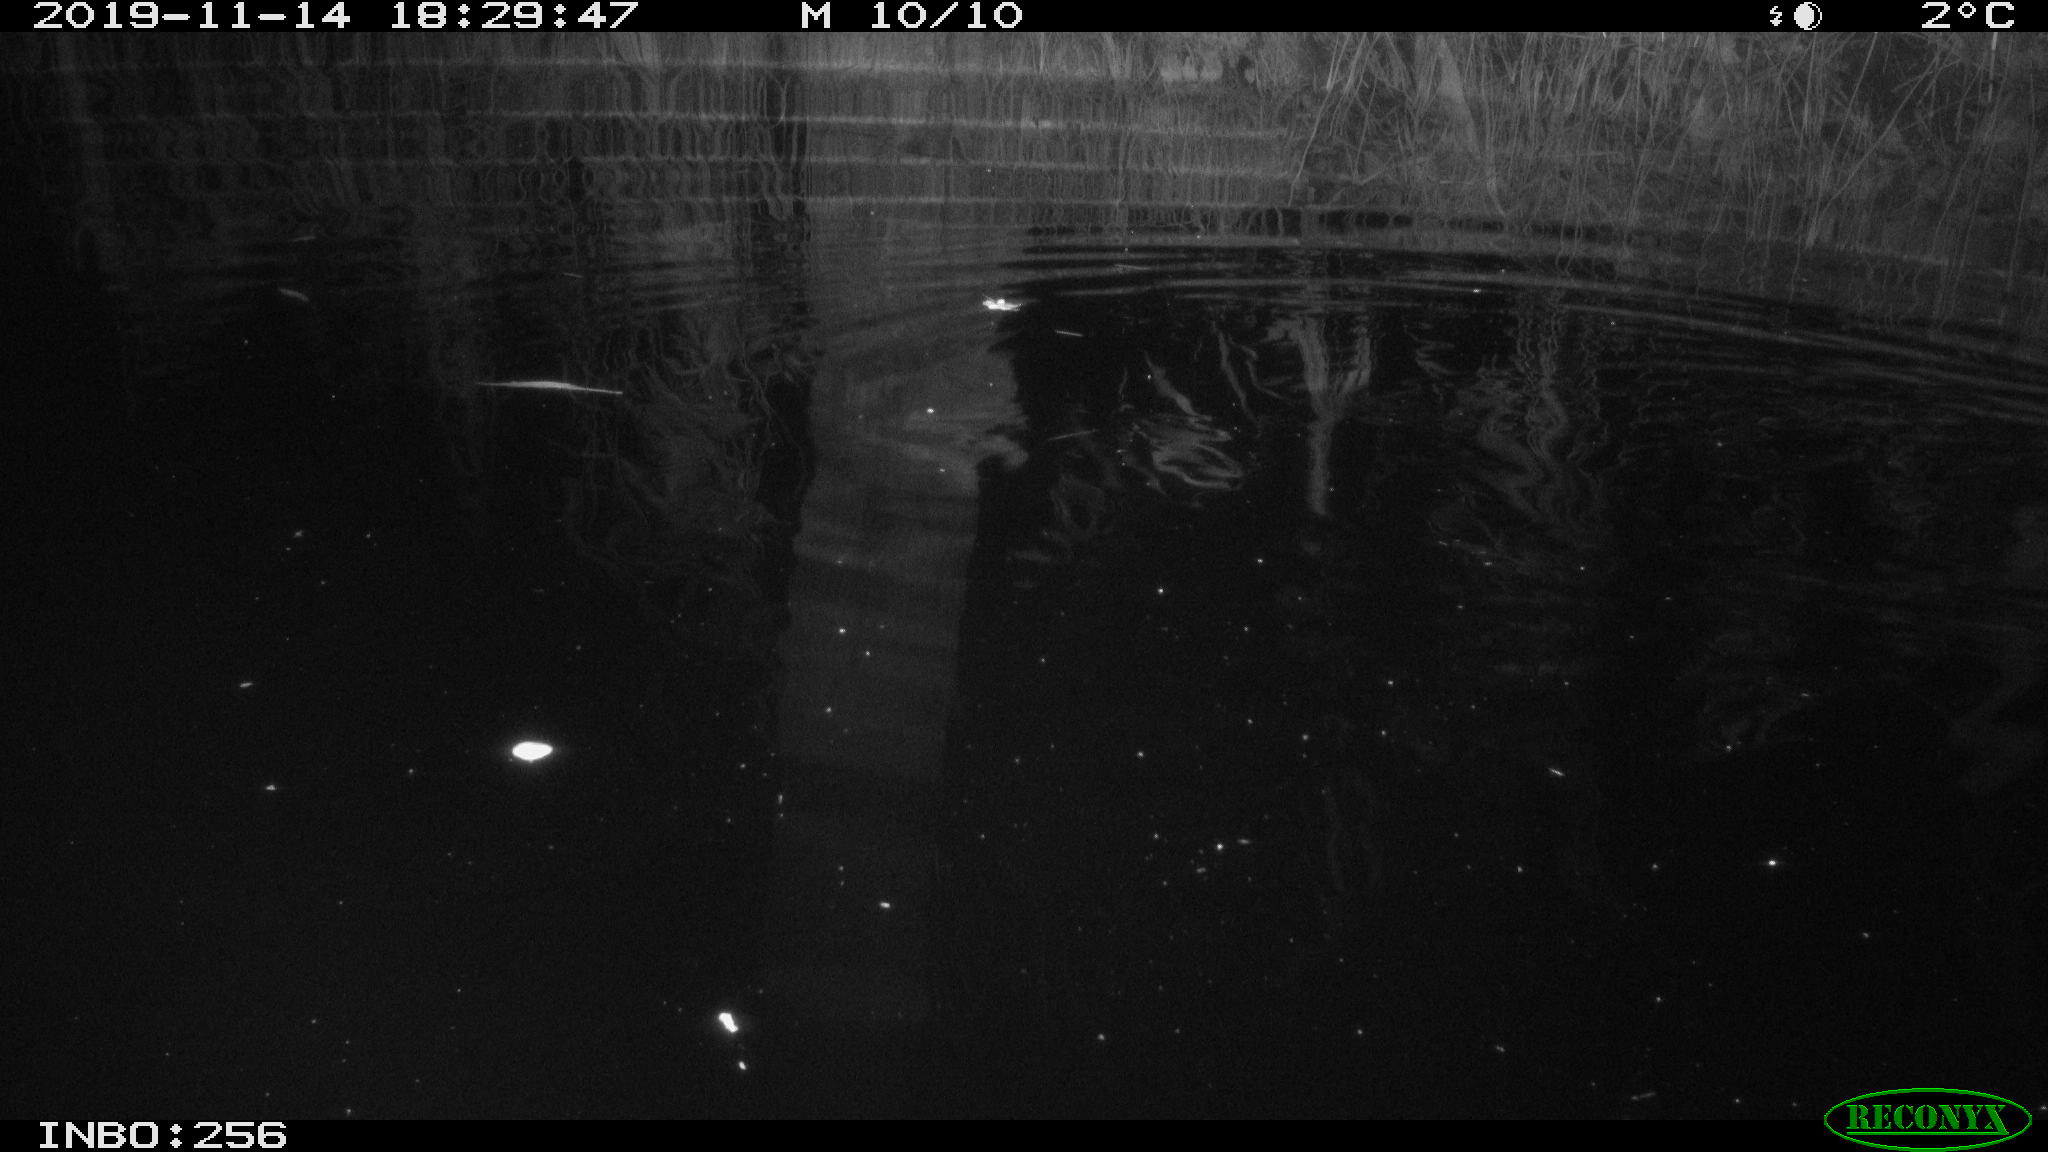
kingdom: Animalia
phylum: Chordata
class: Mammalia
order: Rodentia
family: Muridae
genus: Rattus
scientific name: Rattus norvegicus
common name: Brown rat
